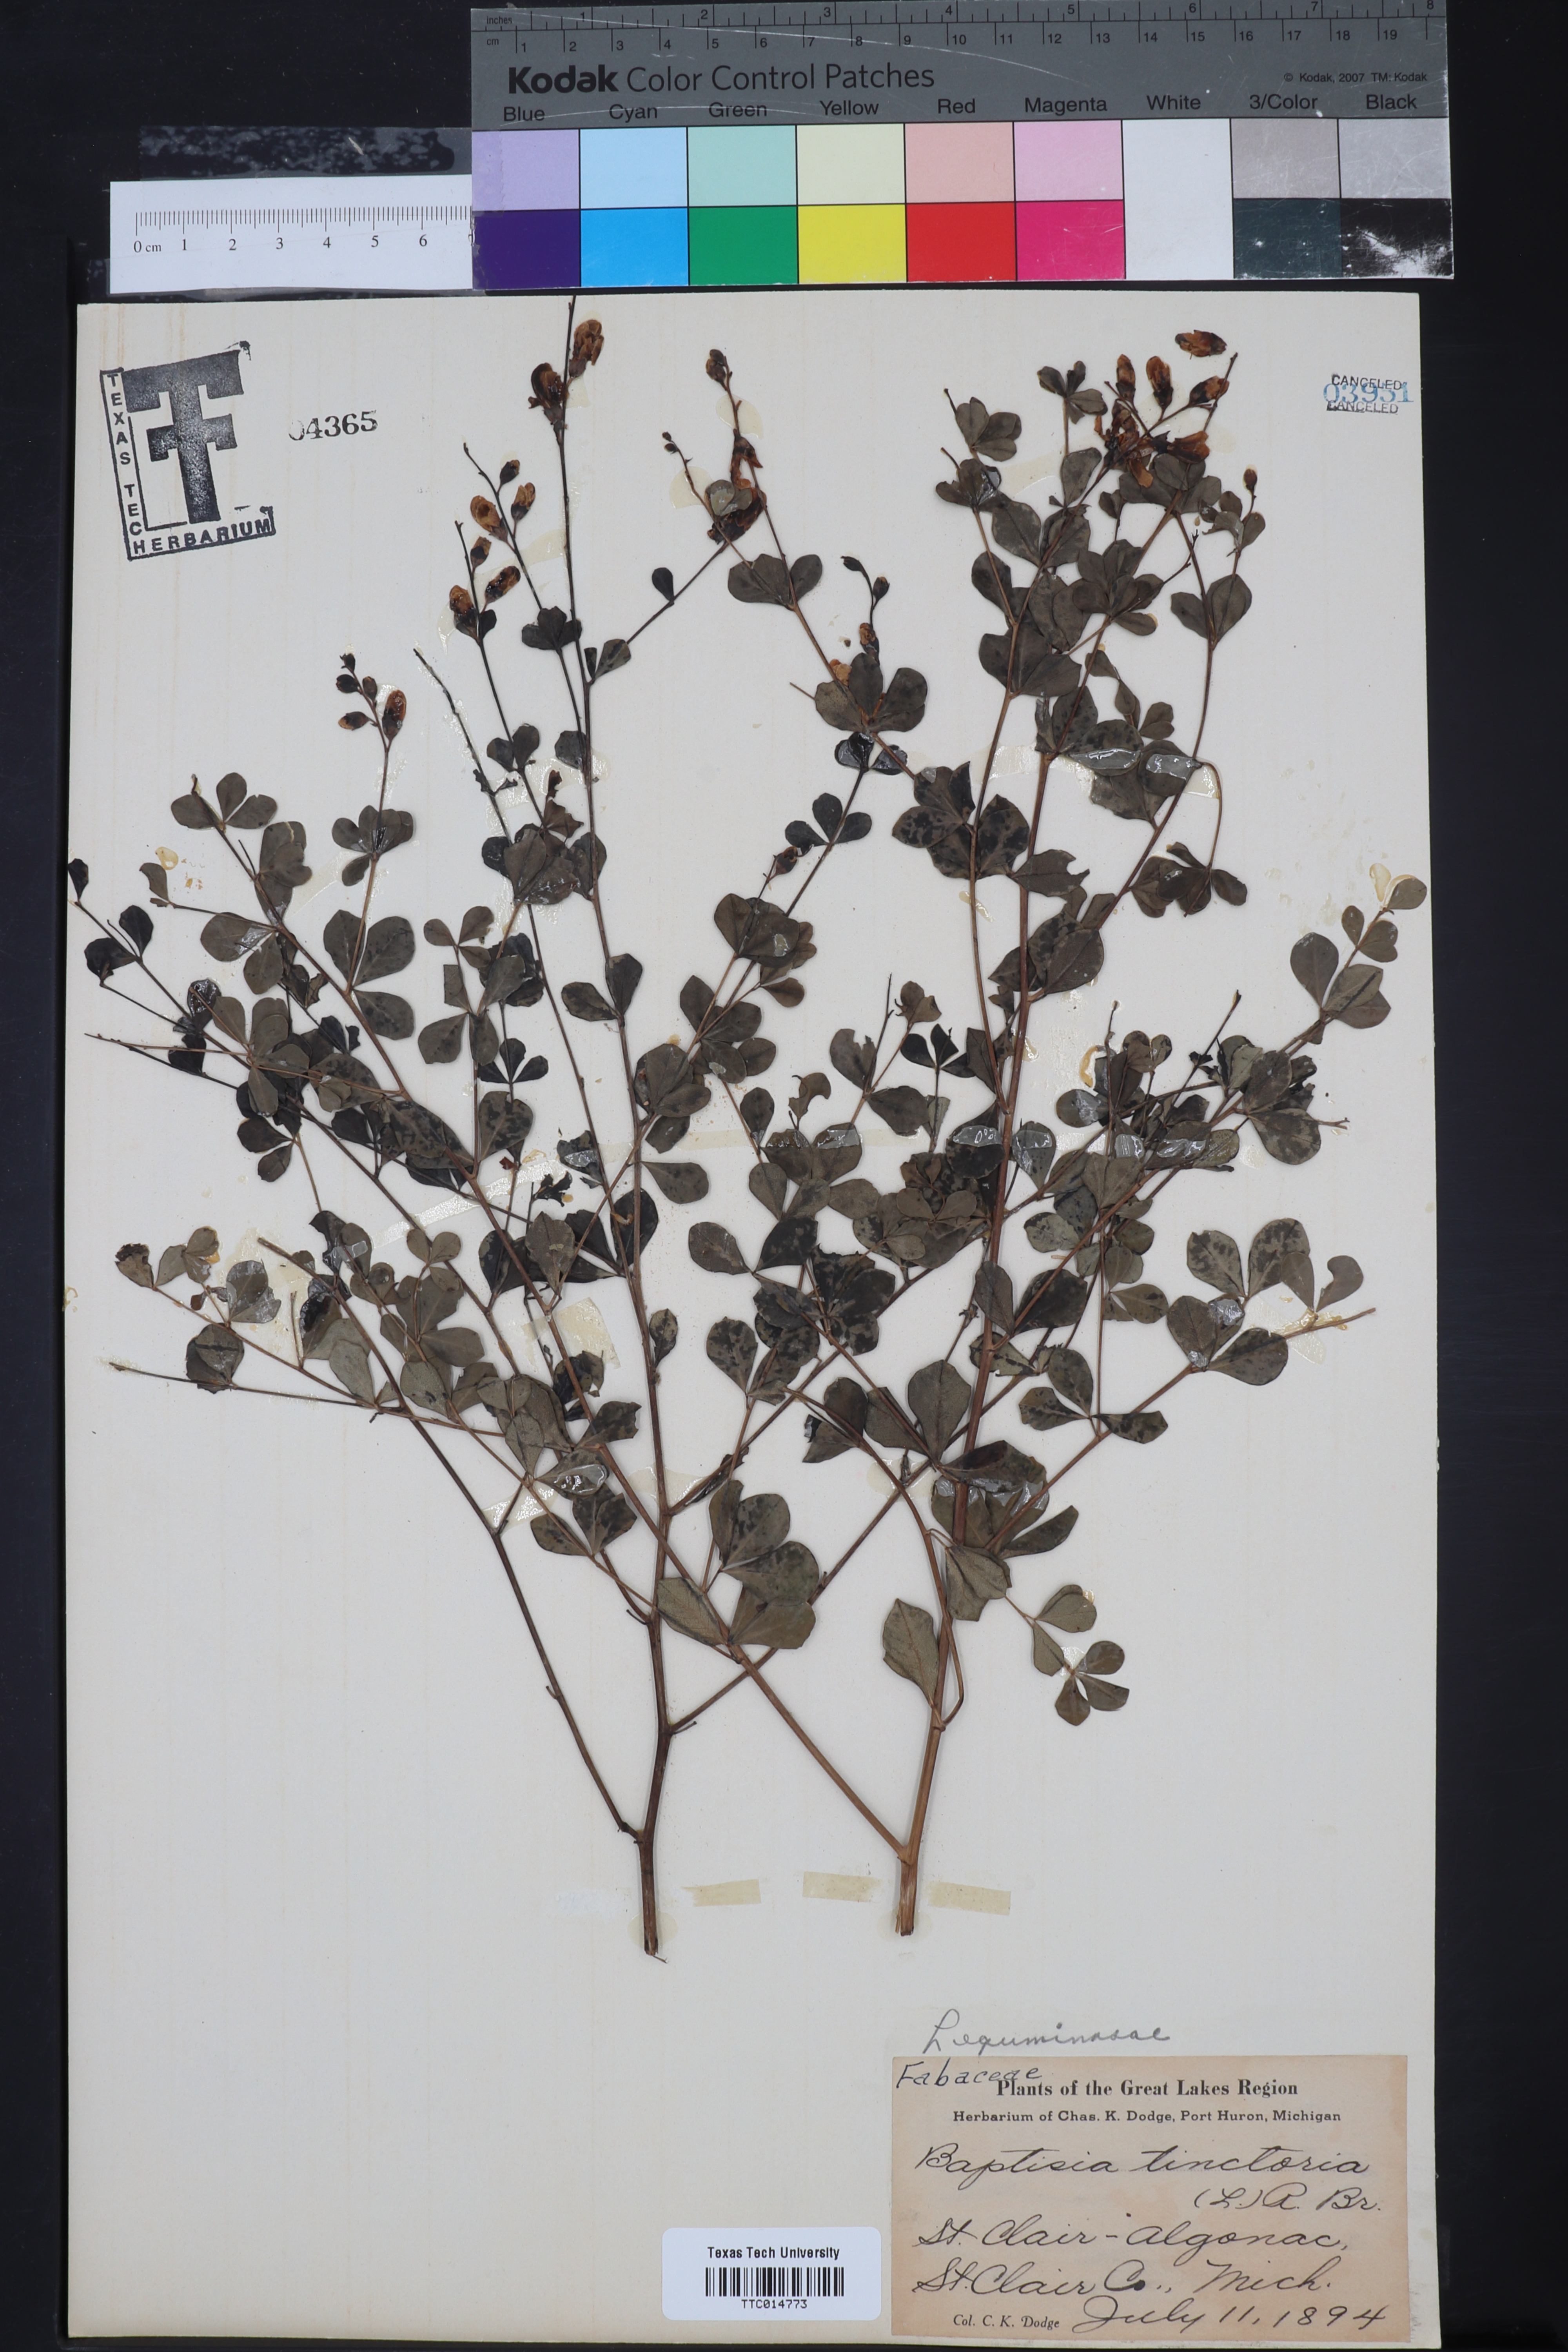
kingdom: Plantae
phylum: Tracheophyta
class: Magnoliopsida
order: Fabales
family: Fabaceae
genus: Baptisia
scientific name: Baptisia tinctoria
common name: Wild indigo
